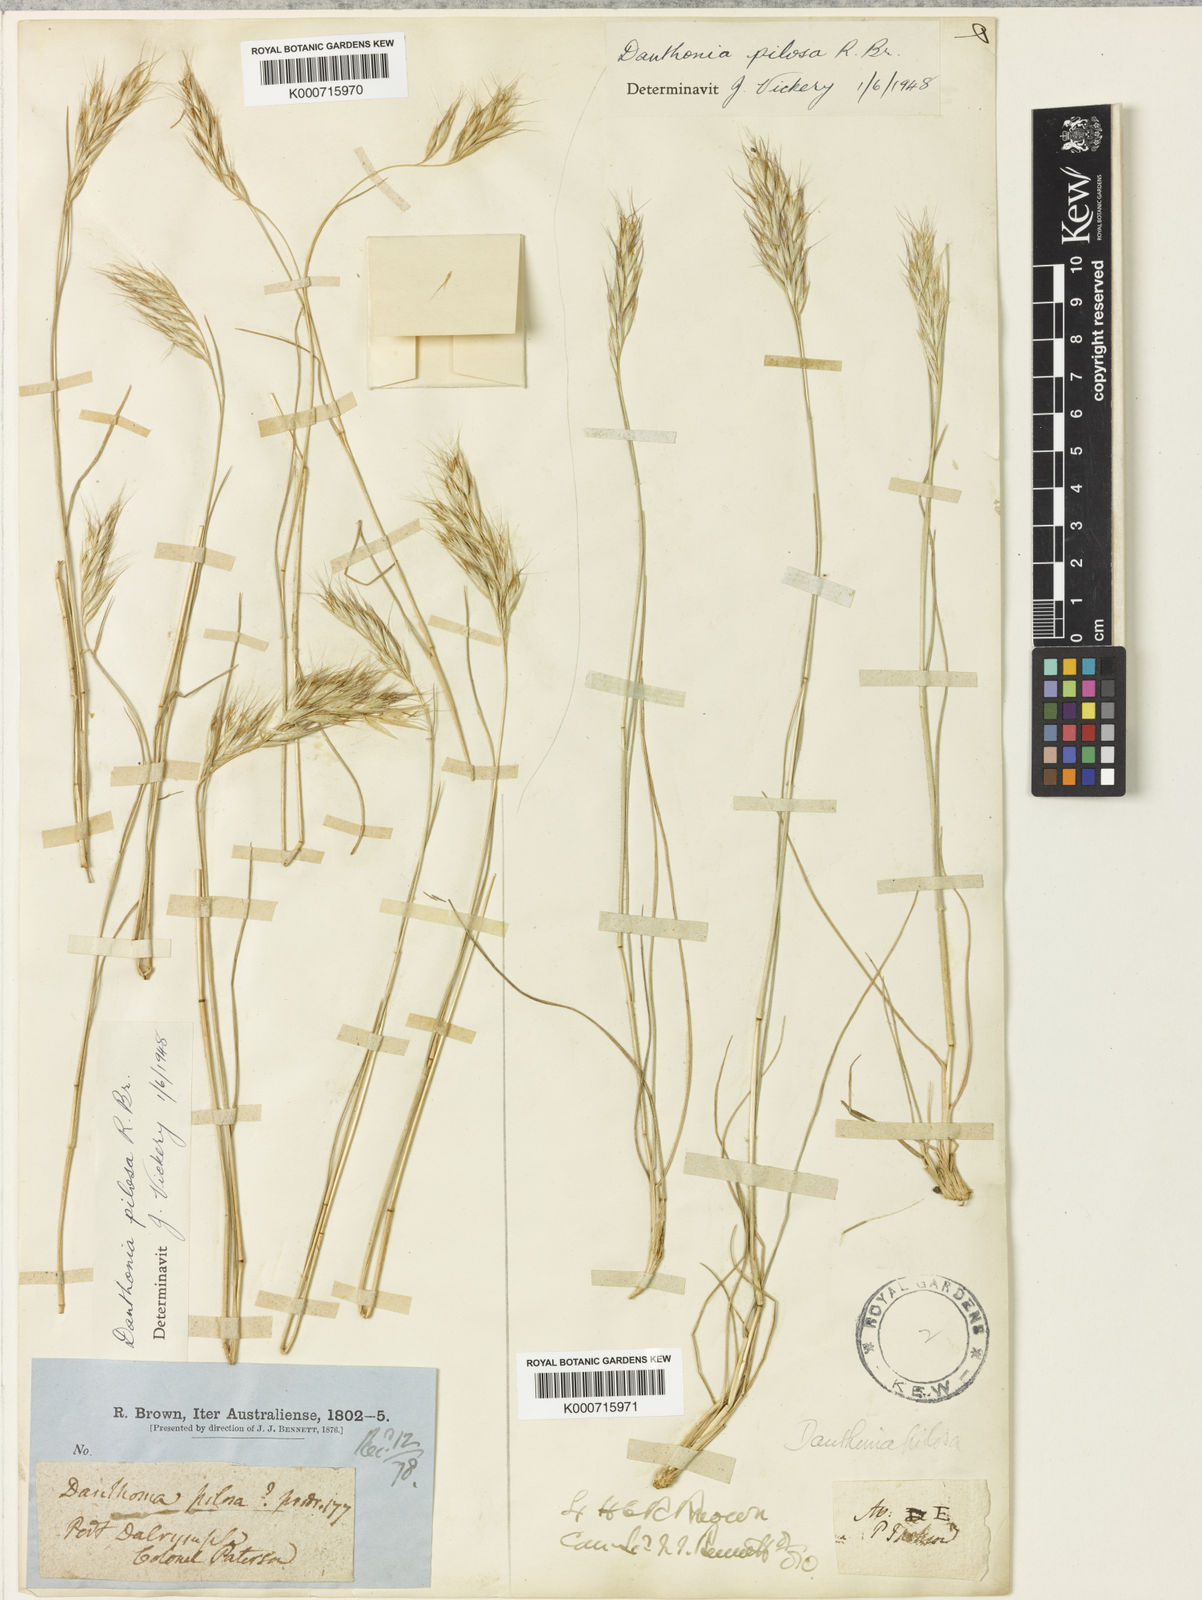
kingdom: Plantae
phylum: Tracheophyta
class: Liliopsida
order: Poales
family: Poaceae
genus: Rytidosperma
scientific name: Rytidosperma pilosum
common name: Hairy wallaby grass
